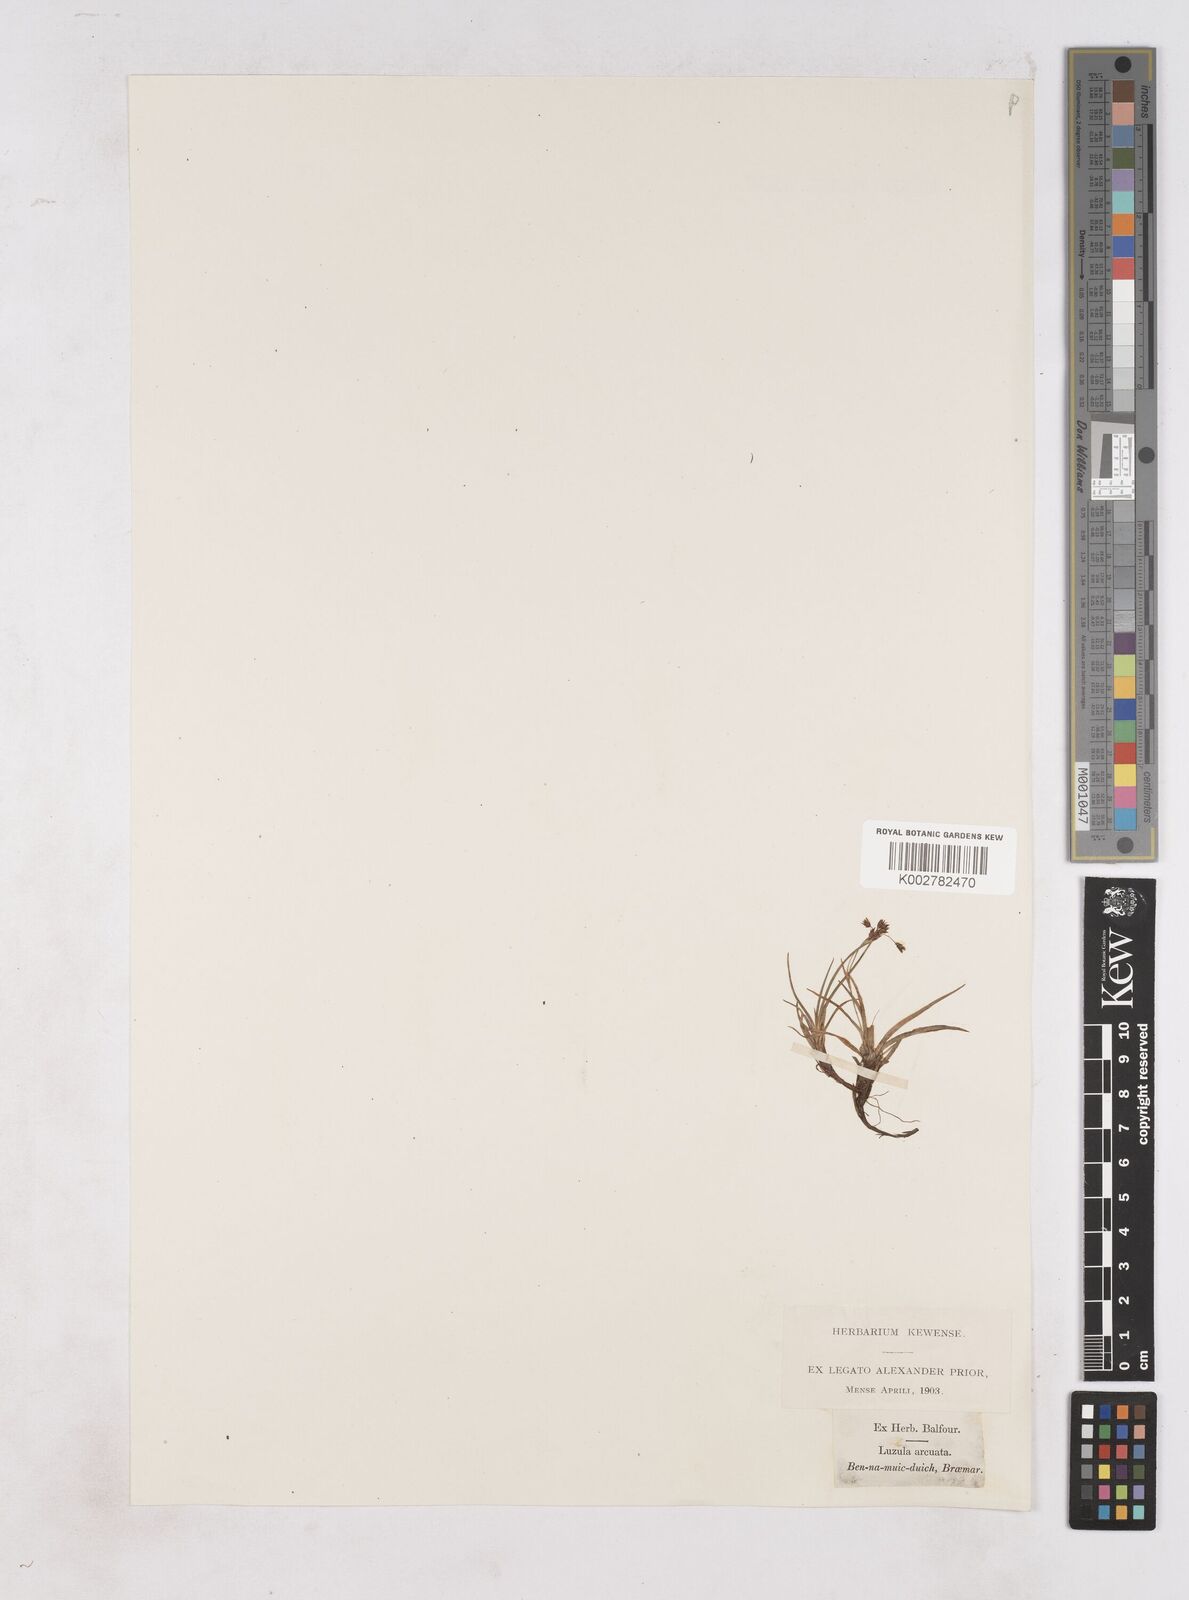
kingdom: Plantae
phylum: Tracheophyta
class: Liliopsida
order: Poales
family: Juncaceae
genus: Luzula
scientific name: Luzula arcuata
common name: Curved wood-rush
